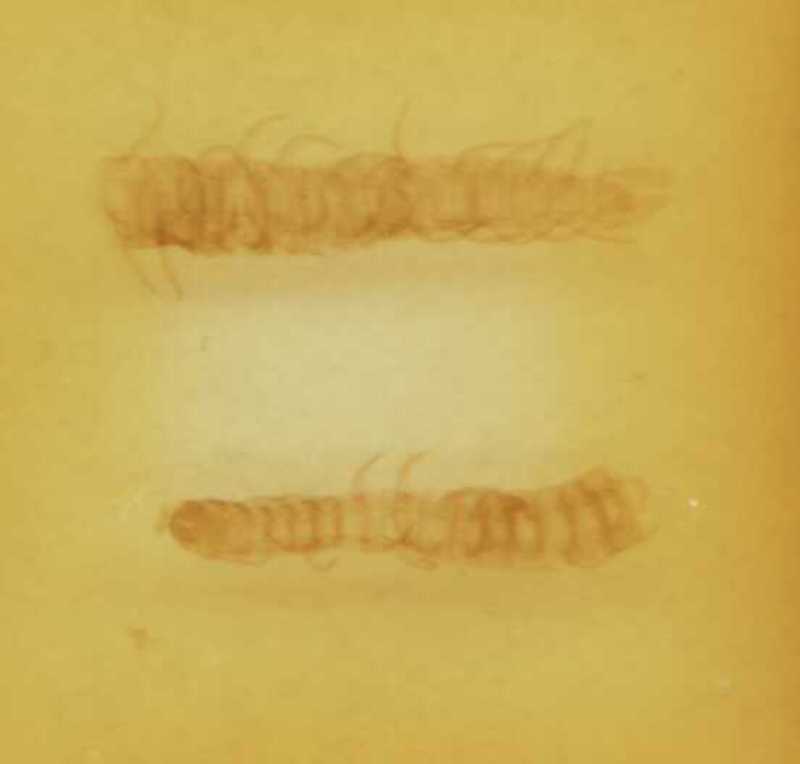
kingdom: Animalia
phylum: Arthropoda
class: Chilopoda
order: Geophilomorpha
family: Linotaeniidae
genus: Strigamia
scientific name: Strigamia transsilvanica
